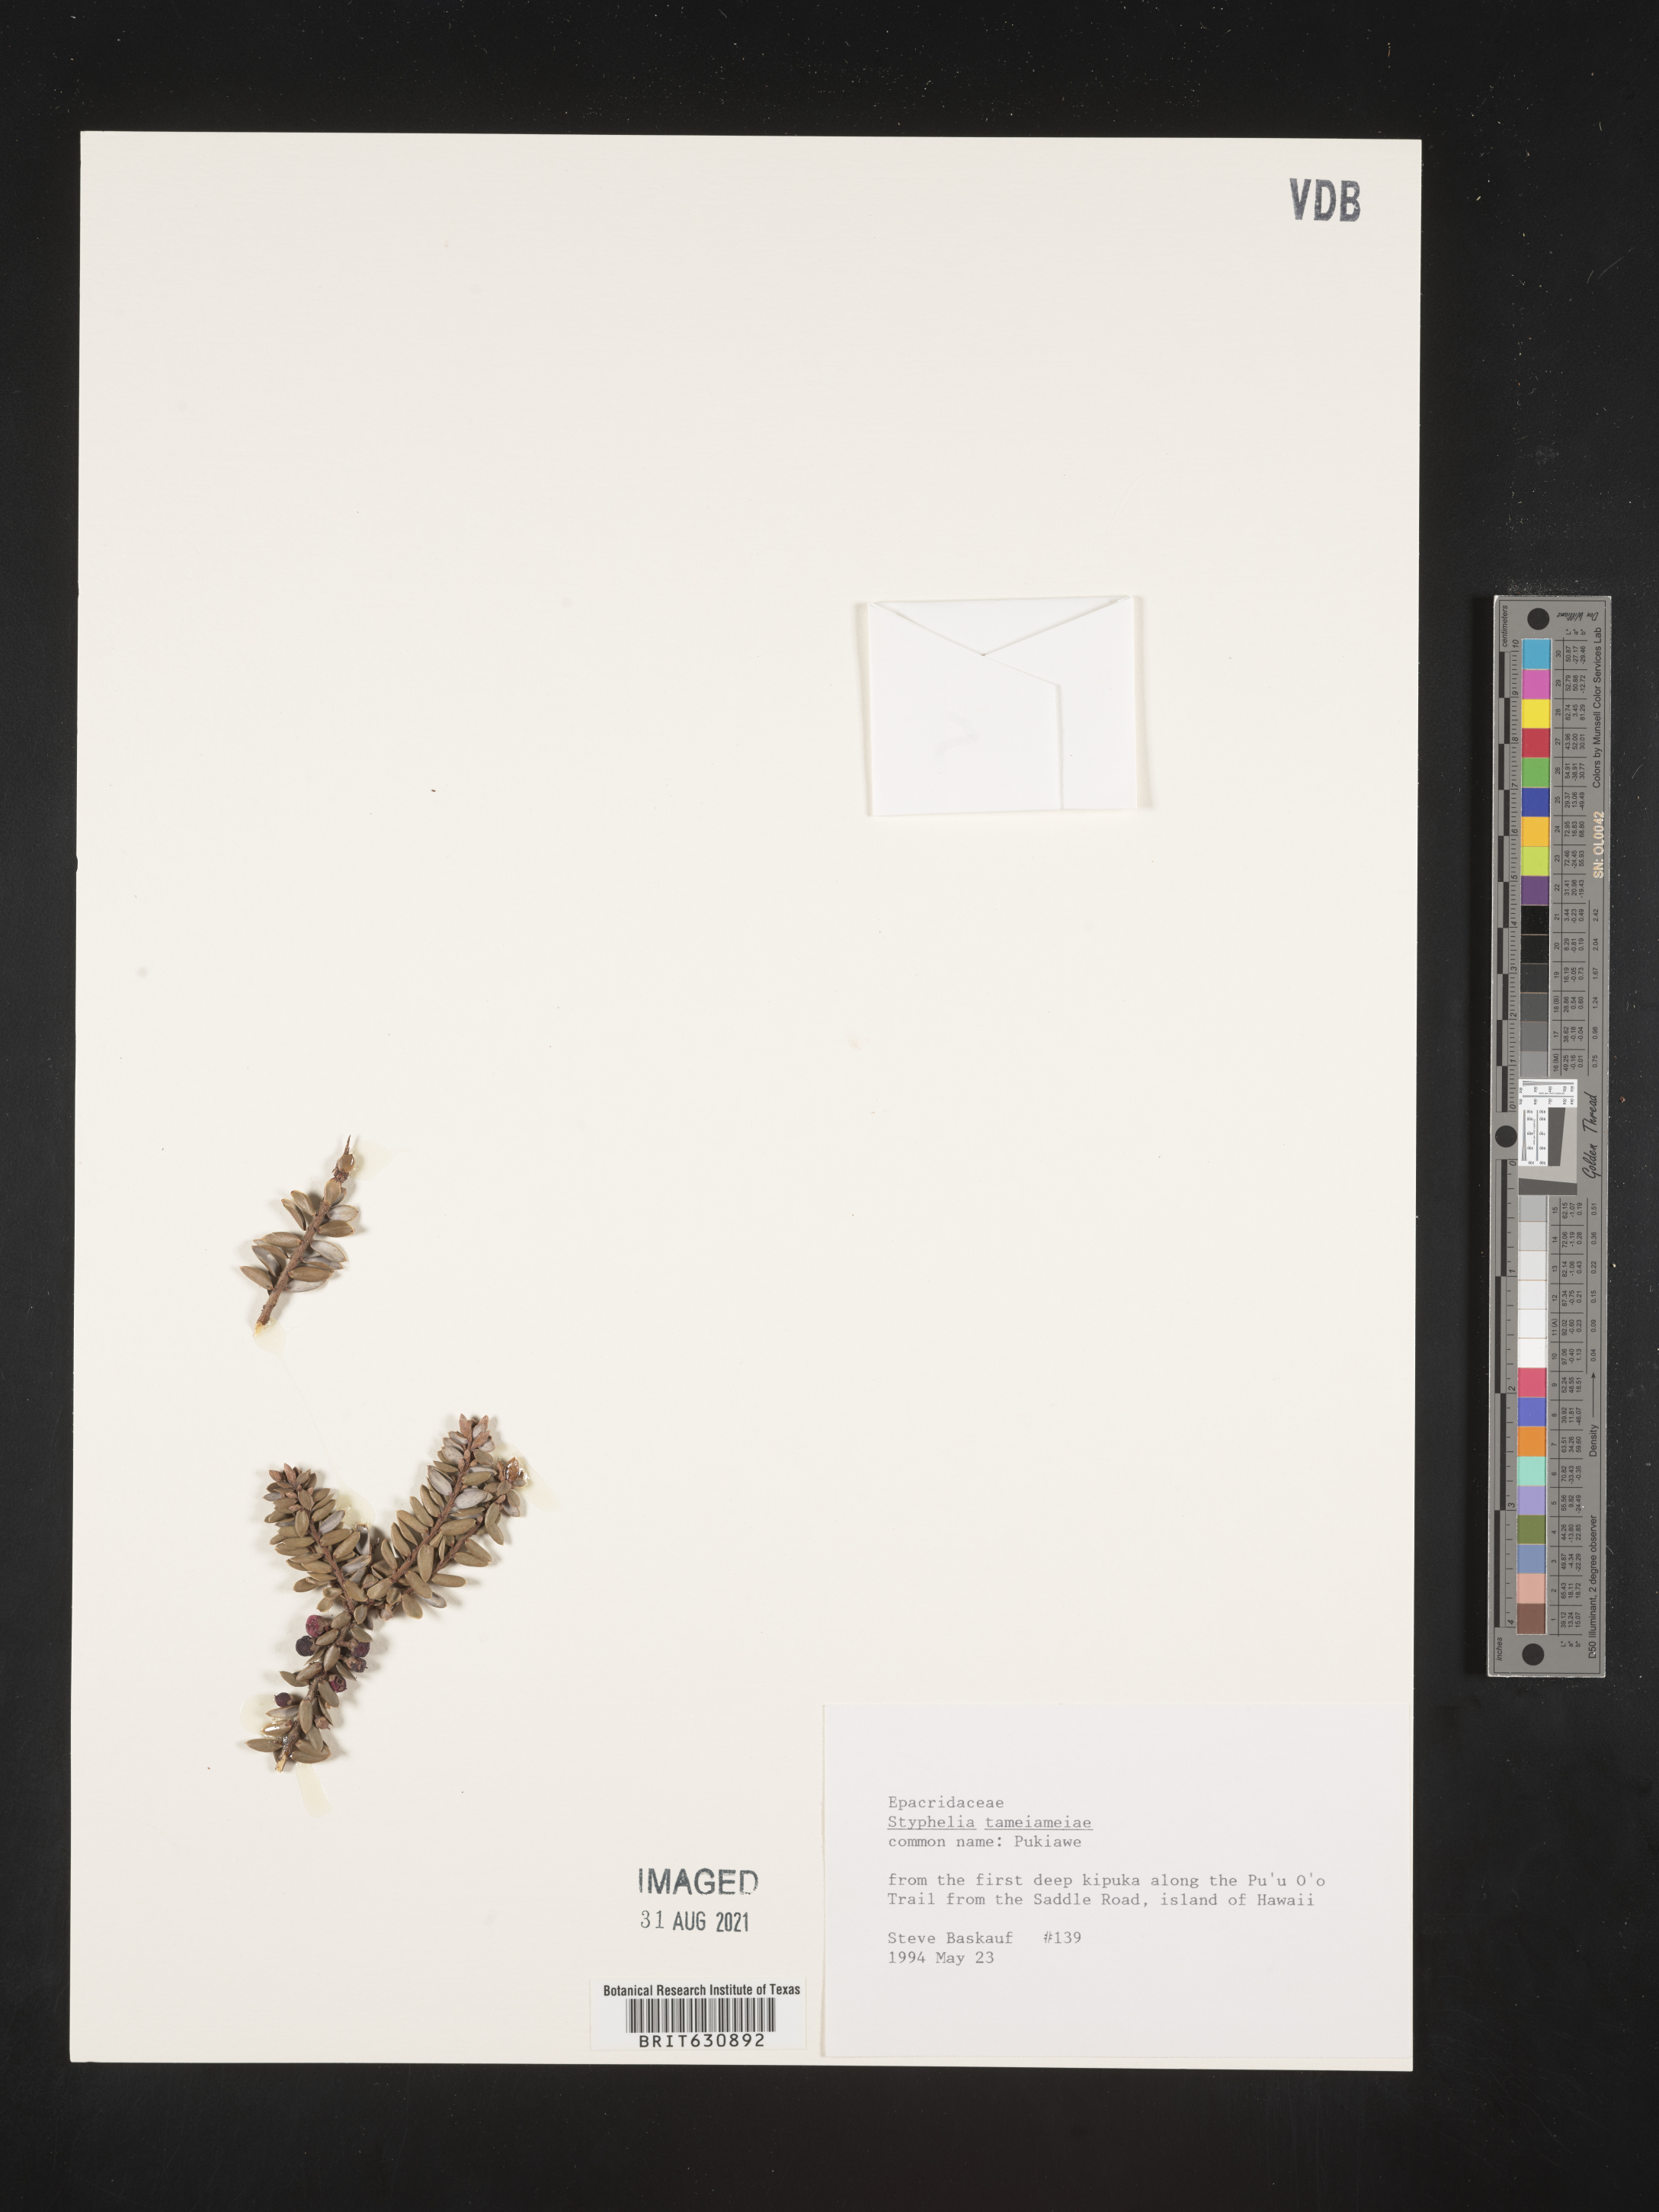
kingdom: Plantae
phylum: Tracheophyta
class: Magnoliopsida
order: Ericales
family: Ericaceae
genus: Sprengelia
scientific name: Sprengelia
